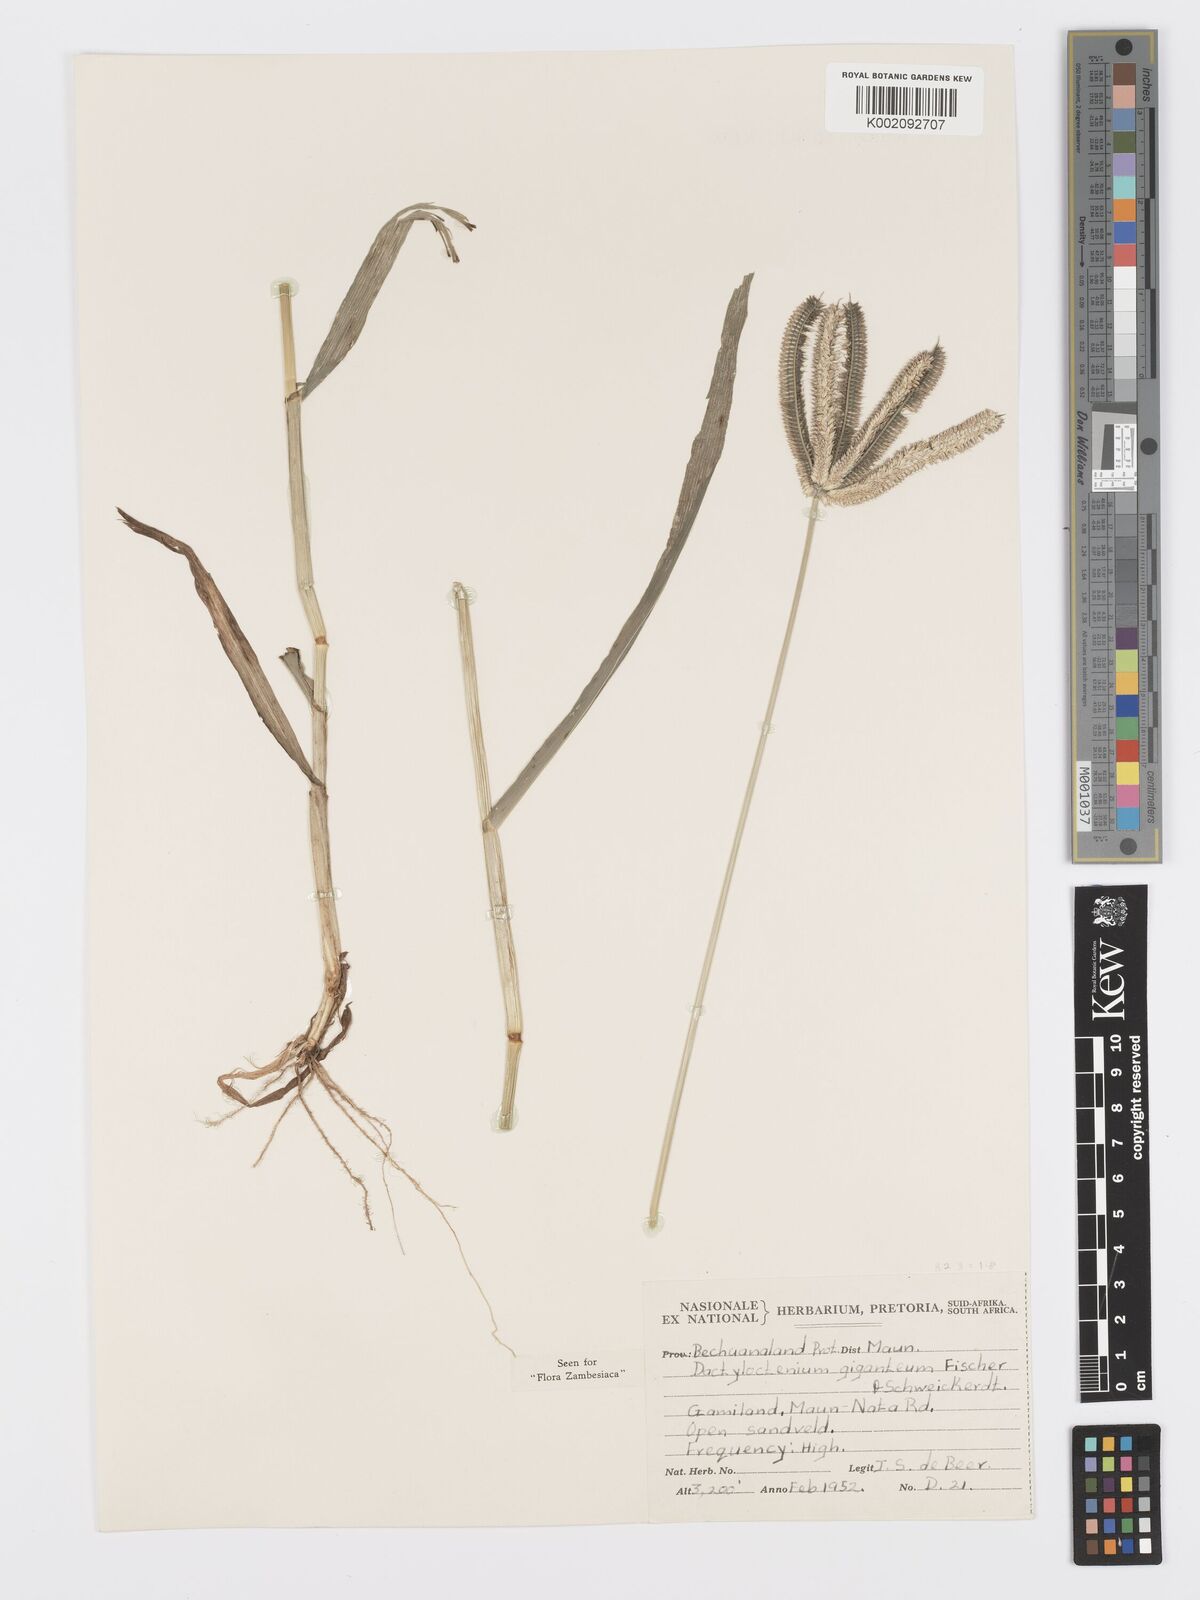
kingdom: Plantae
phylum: Tracheophyta
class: Liliopsida
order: Poales
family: Poaceae
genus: Dactyloctenium
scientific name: Dactyloctenium giganteum
